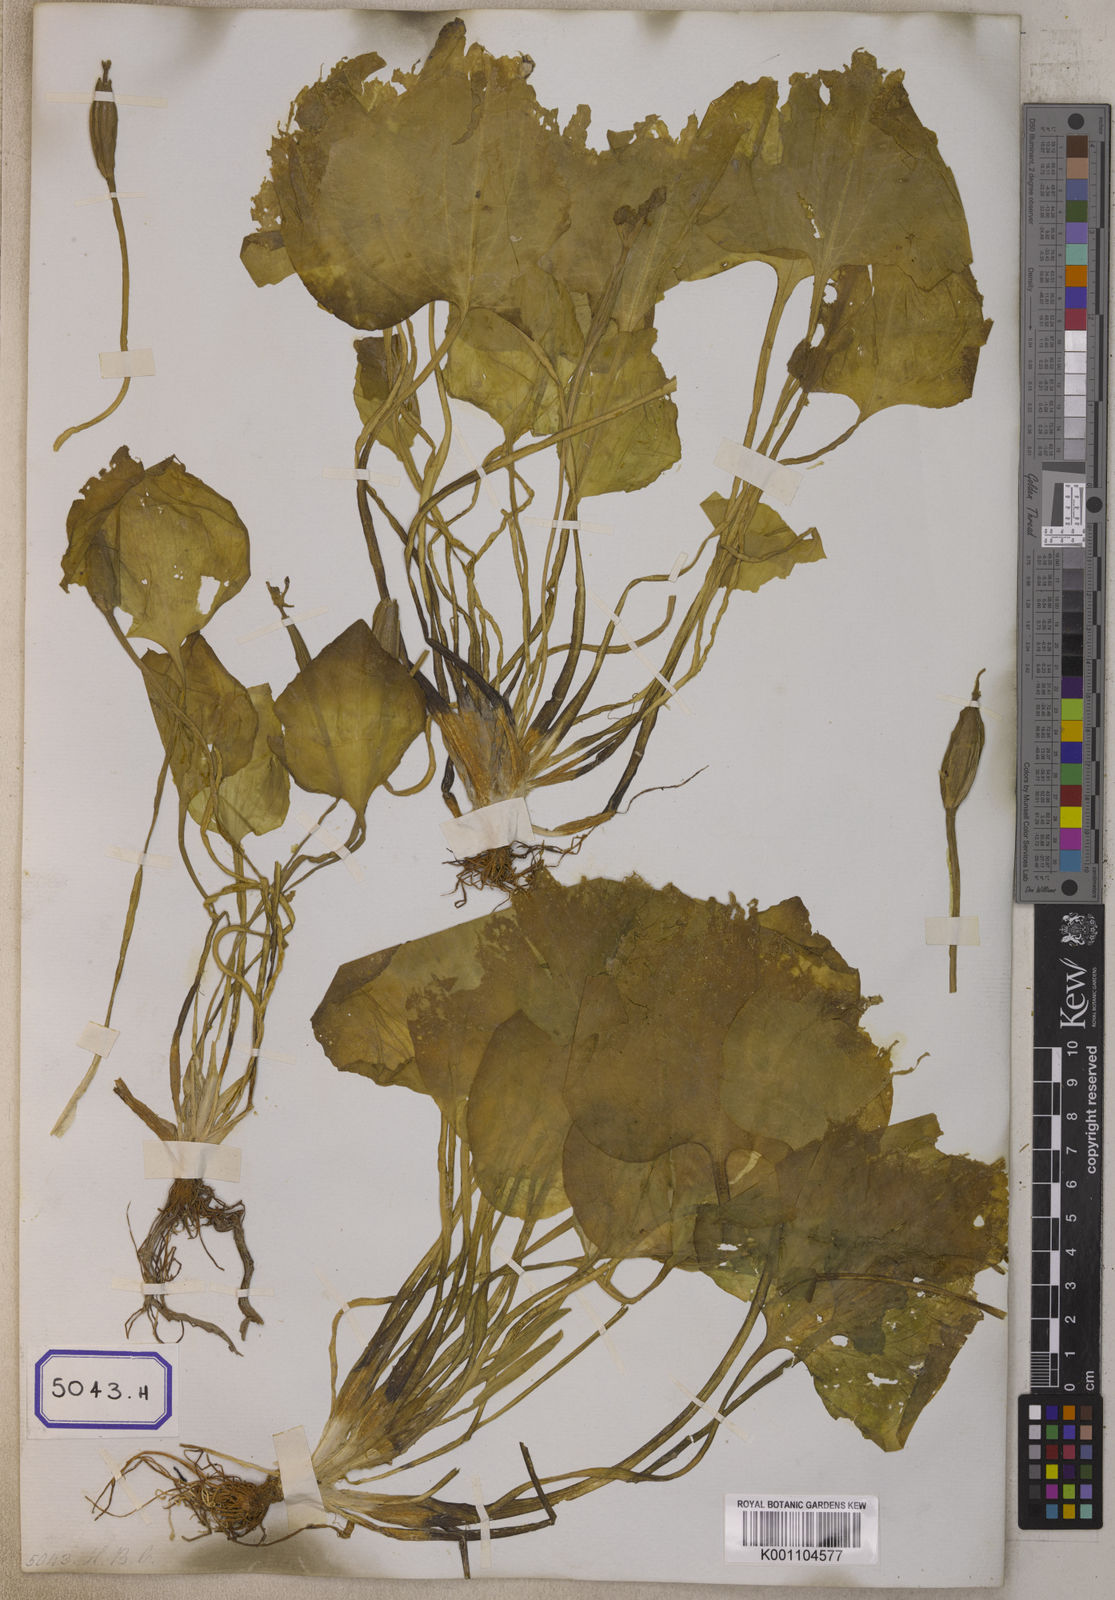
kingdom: Plantae
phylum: Tracheophyta
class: Liliopsida
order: Alismatales
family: Hydrocharitaceae
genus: Ottelia
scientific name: Ottelia alismoides
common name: Duck-lettuce
